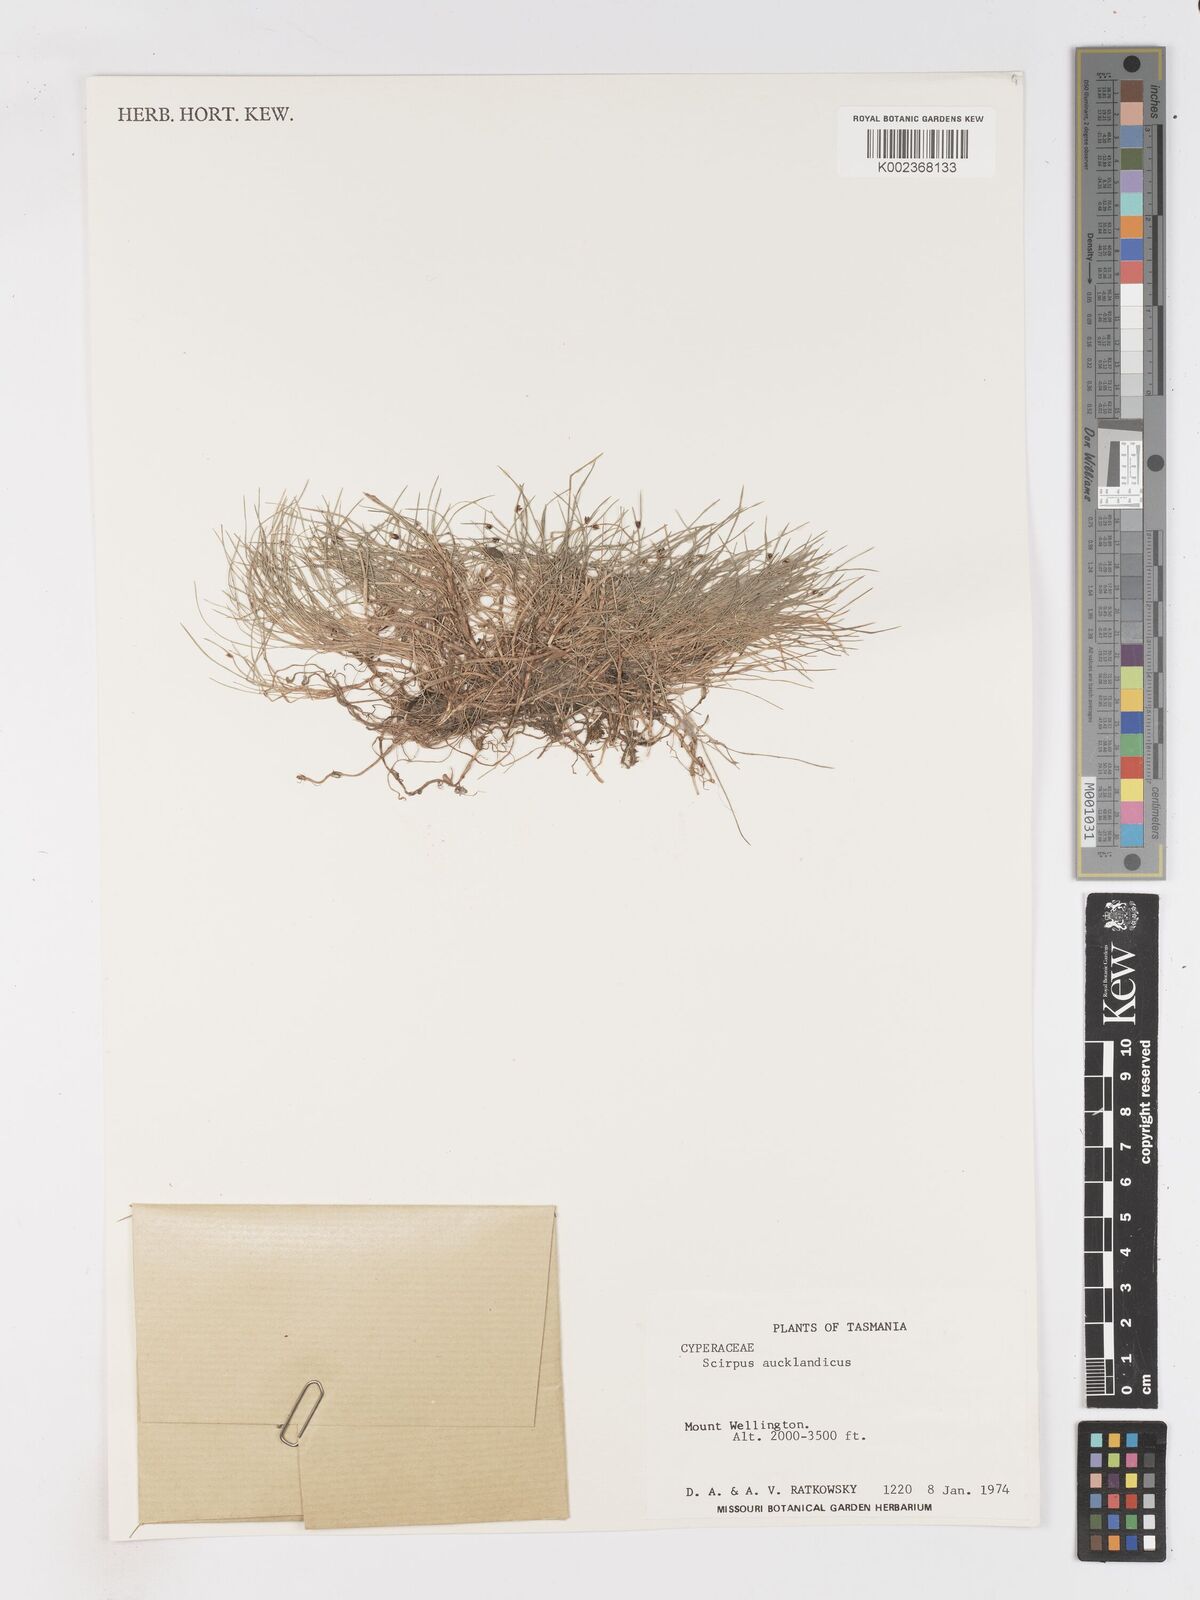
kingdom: Plantae
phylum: Tracheophyta
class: Liliopsida
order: Poales
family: Cyperaceae
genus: Isolepis
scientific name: Isolepis aucklandica
